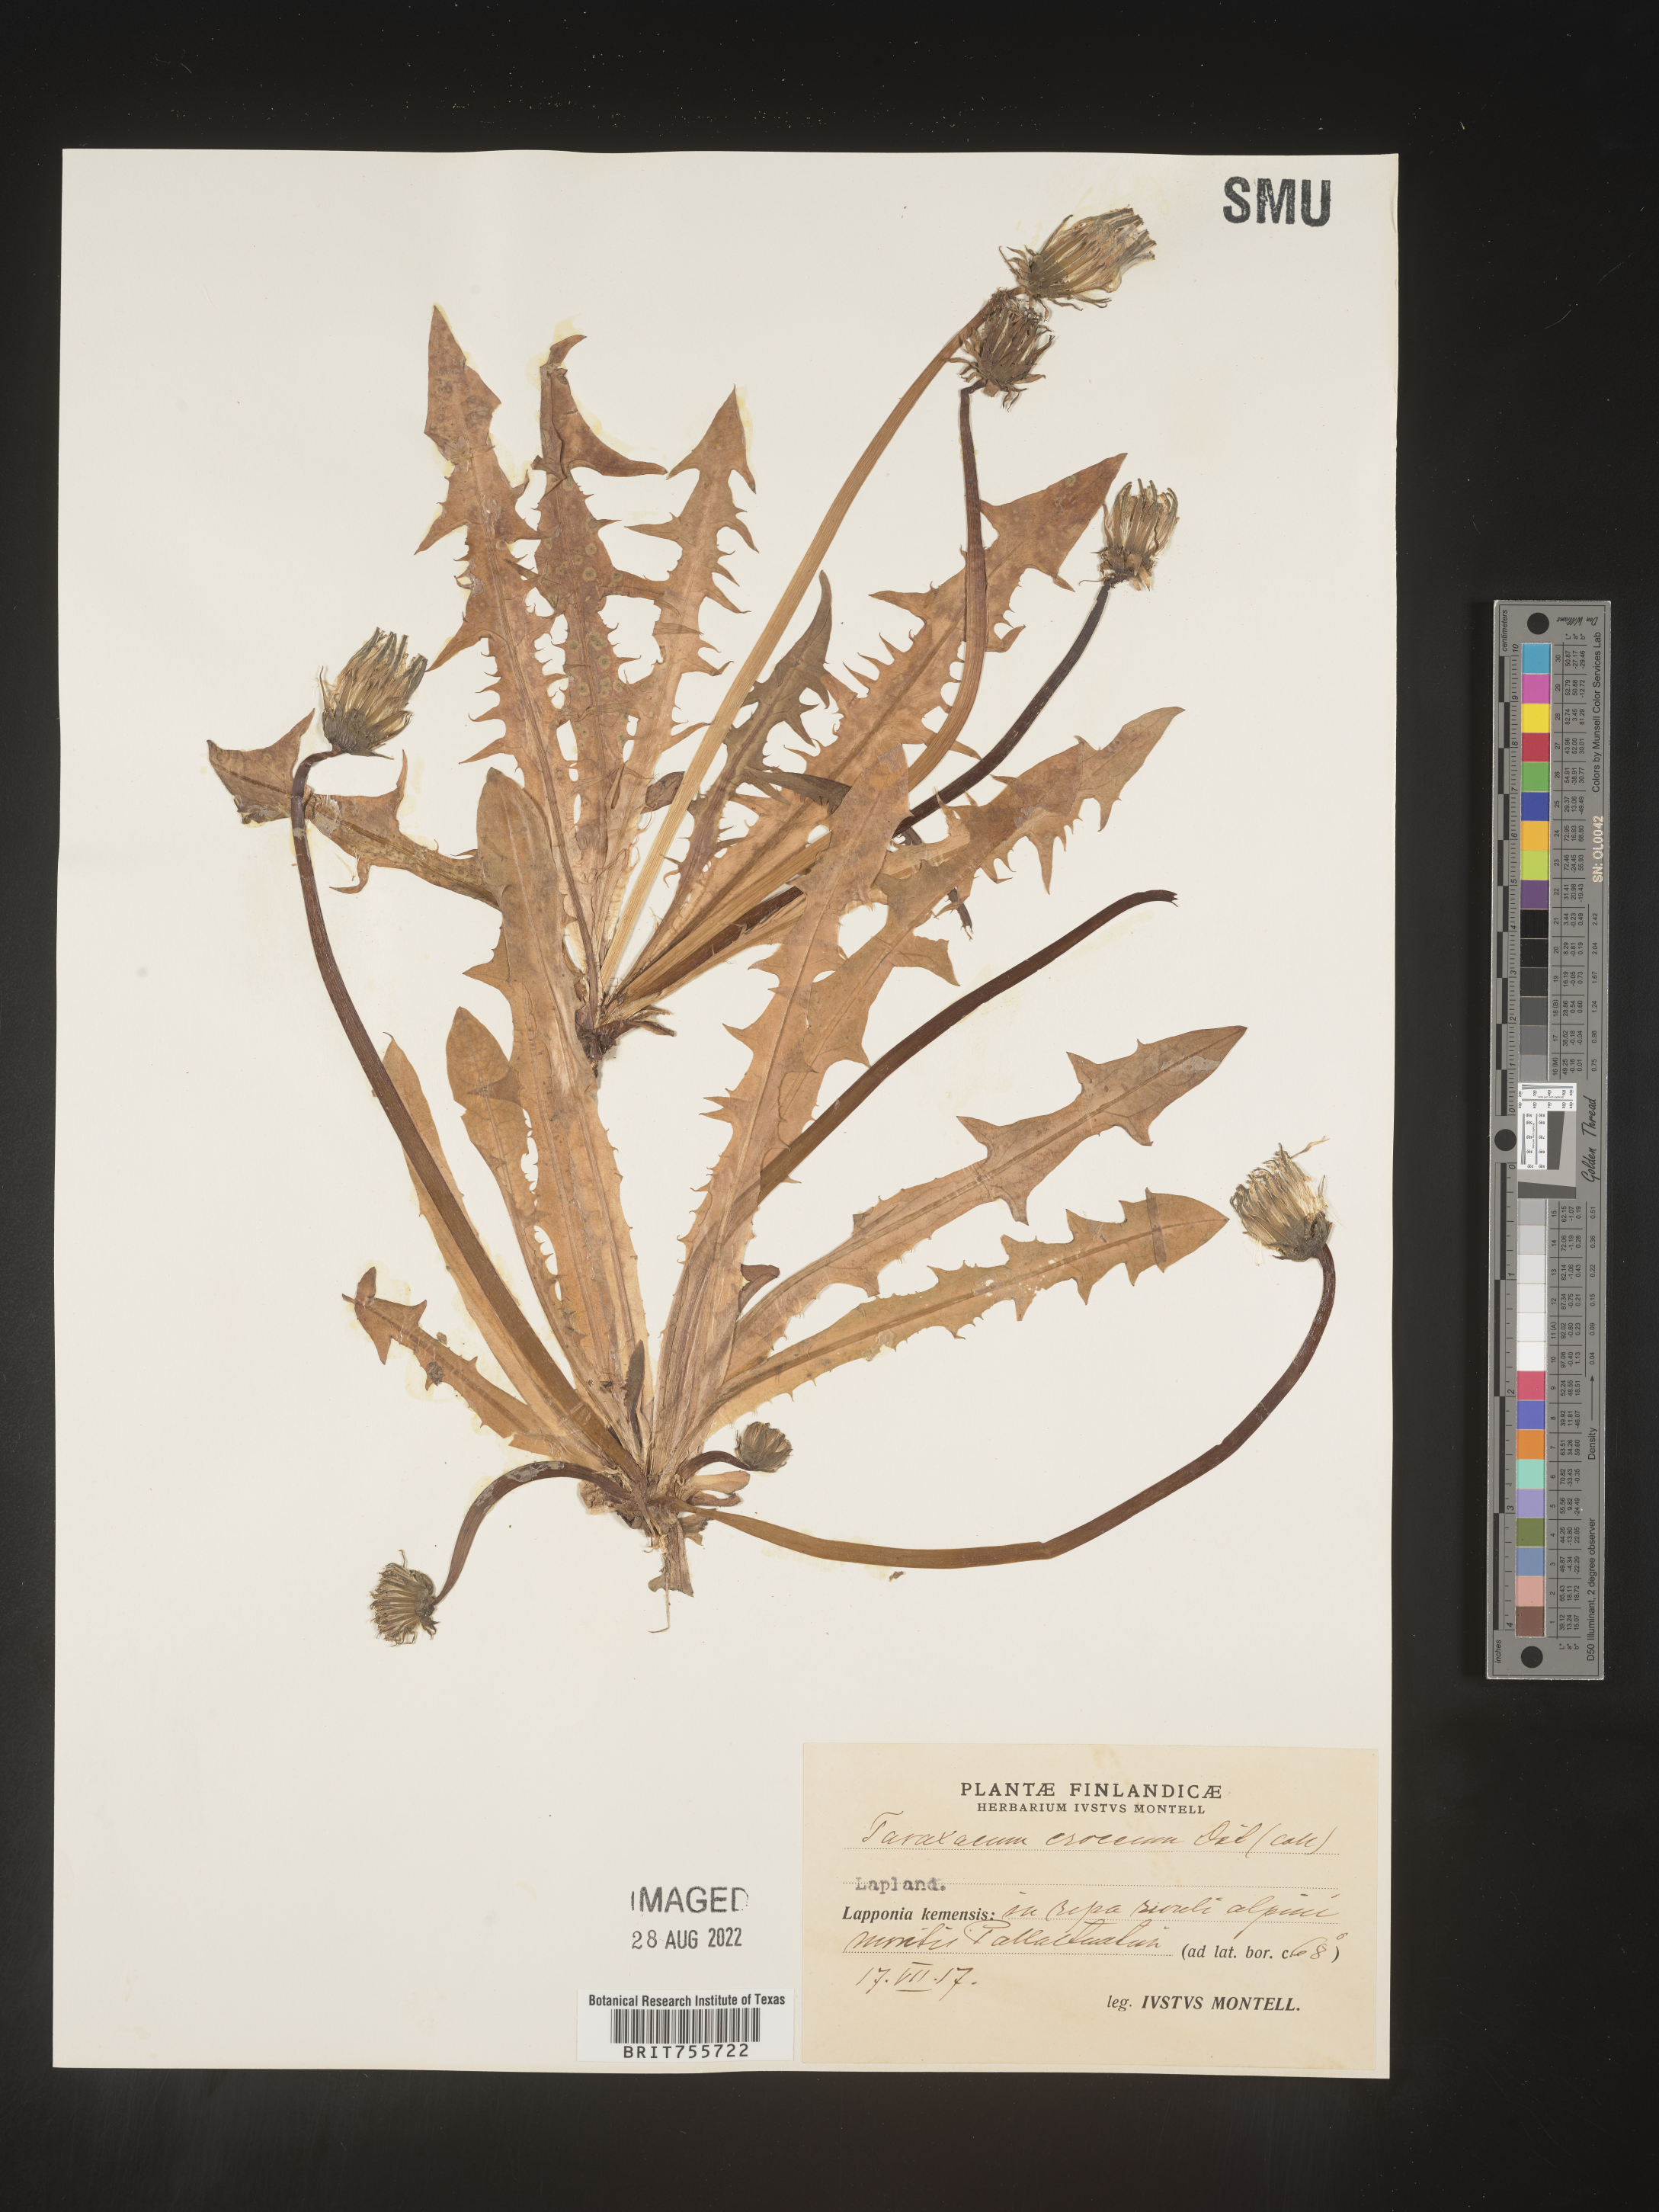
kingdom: Plantae
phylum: Tracheophyta
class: Magnoliopsida
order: Asterales
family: Asteraceae
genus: Taraxacum
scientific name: Taraxacum
